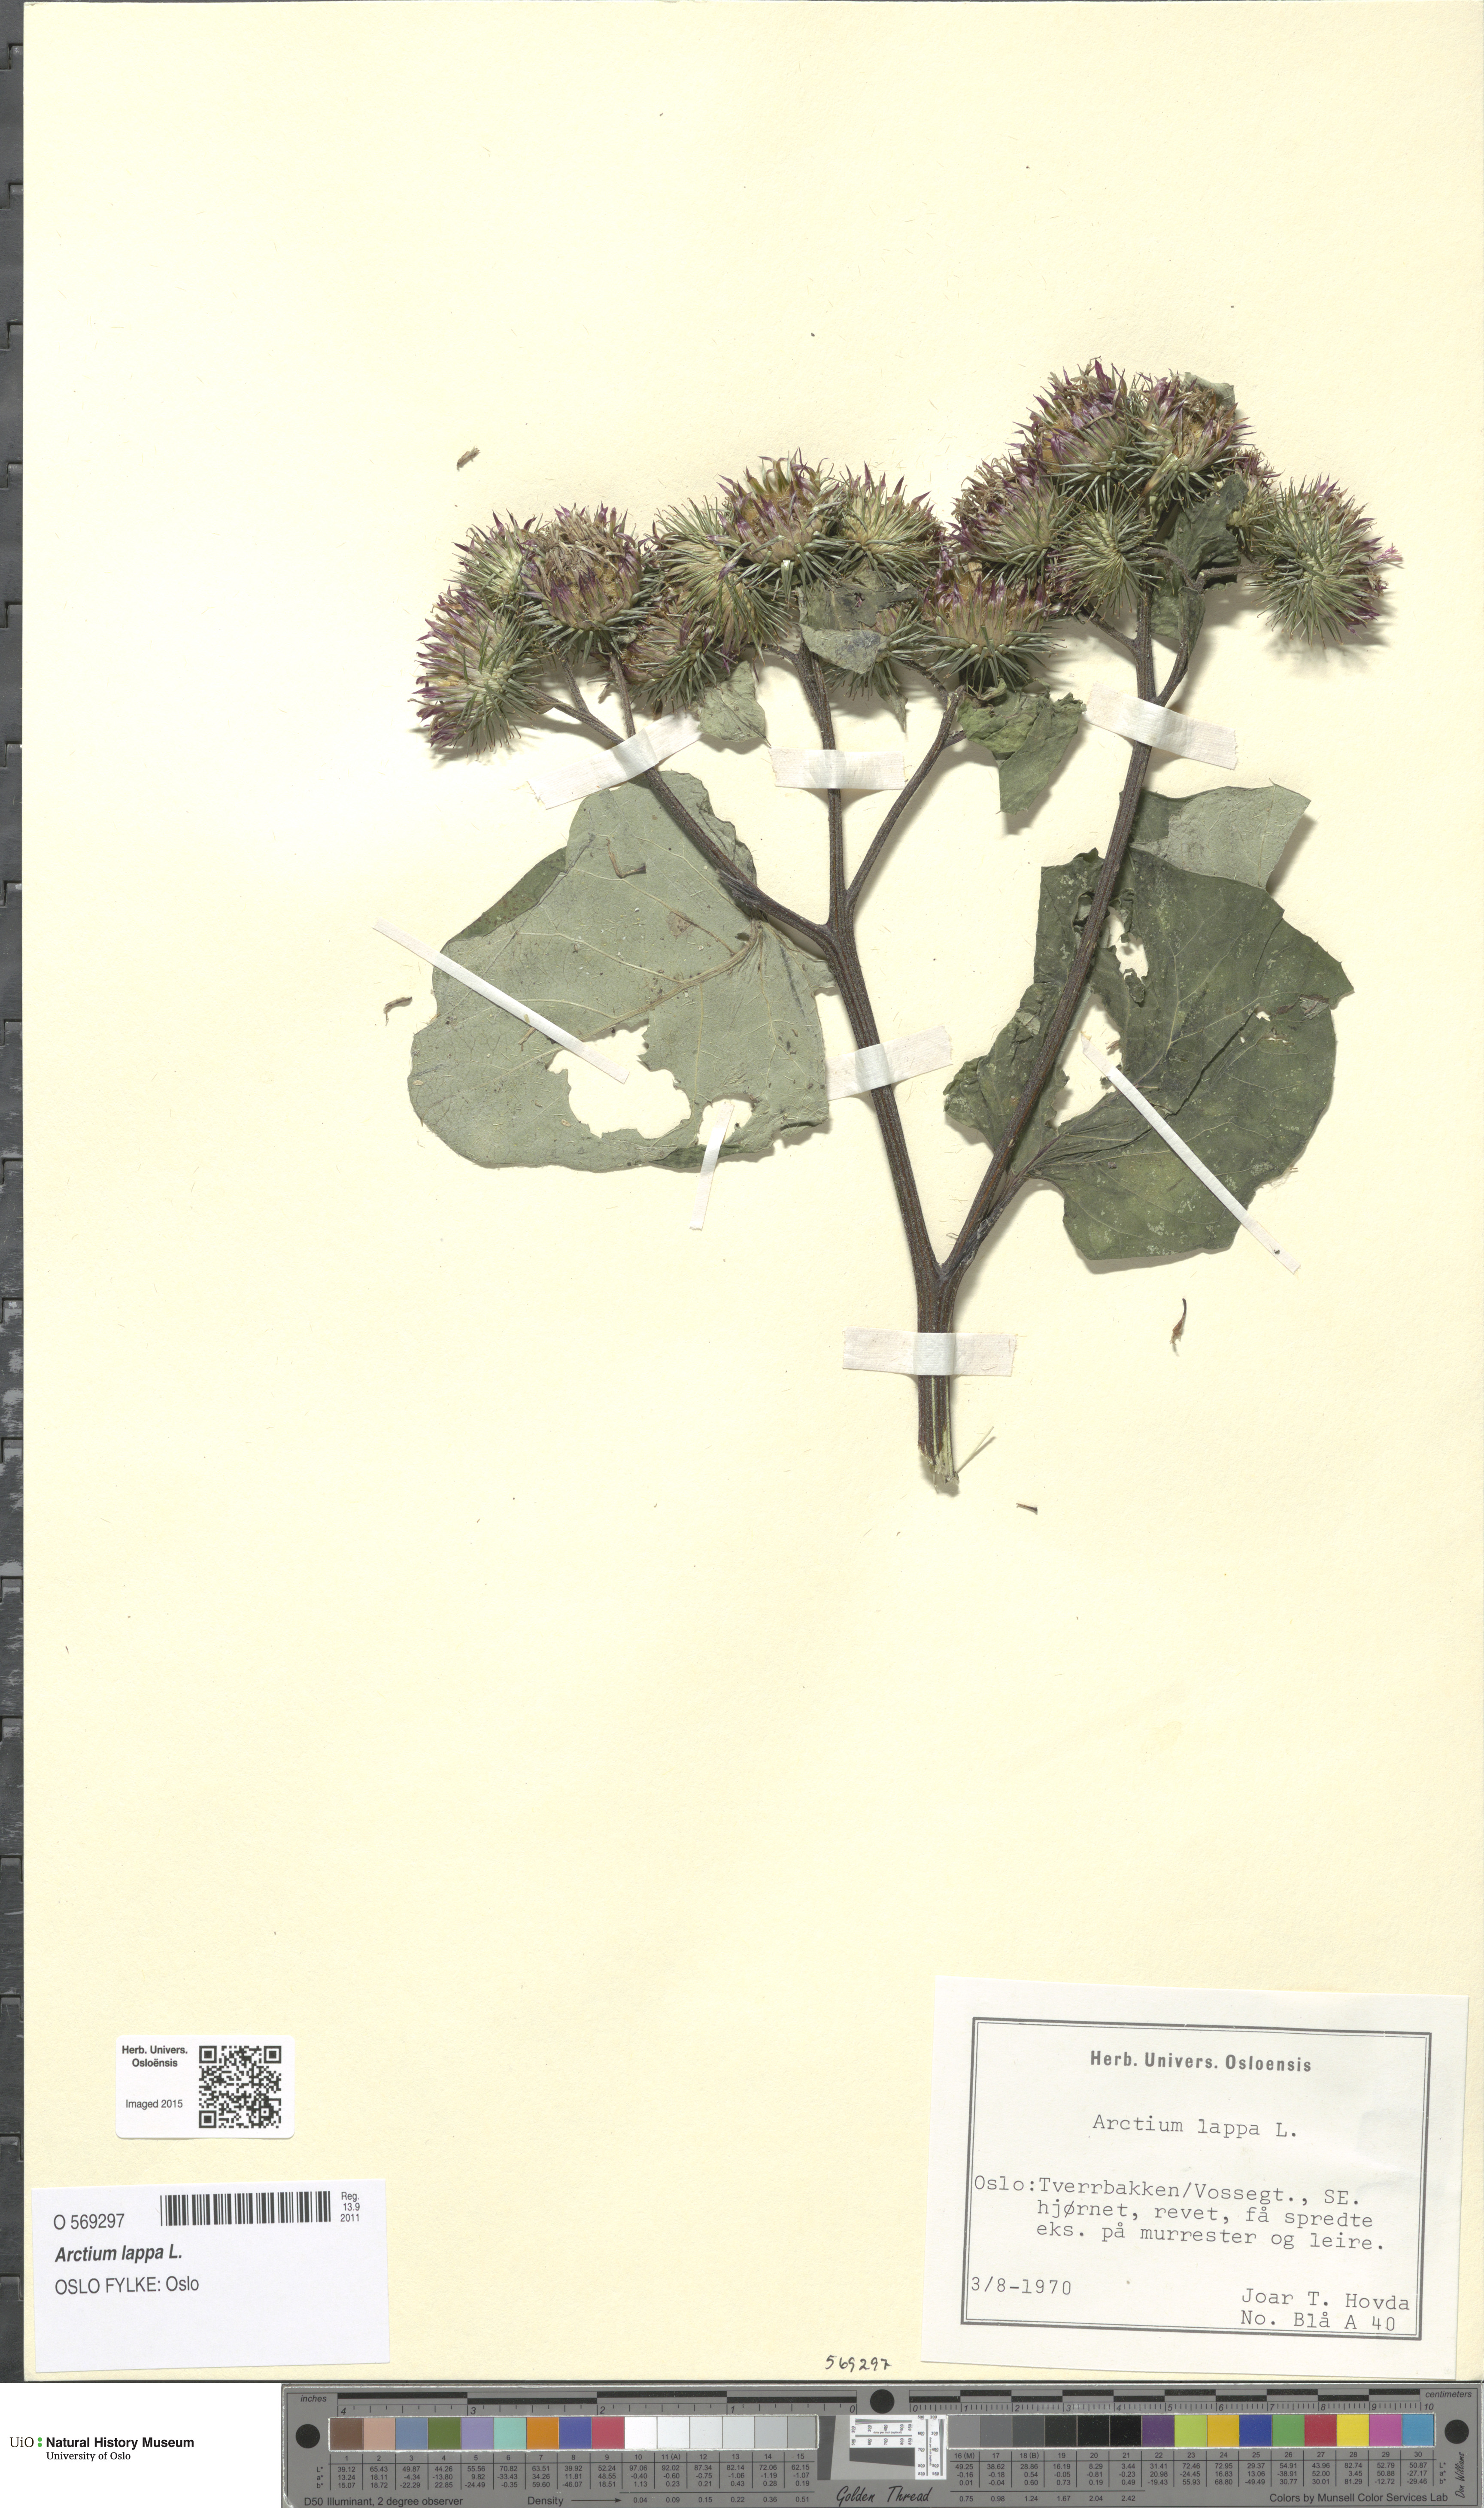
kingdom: Plantae
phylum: Tracheophyta
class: Magnoliopsida
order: Asterales
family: Asteraceae
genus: Arctium
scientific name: Arctium lappa
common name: Greater burdock
